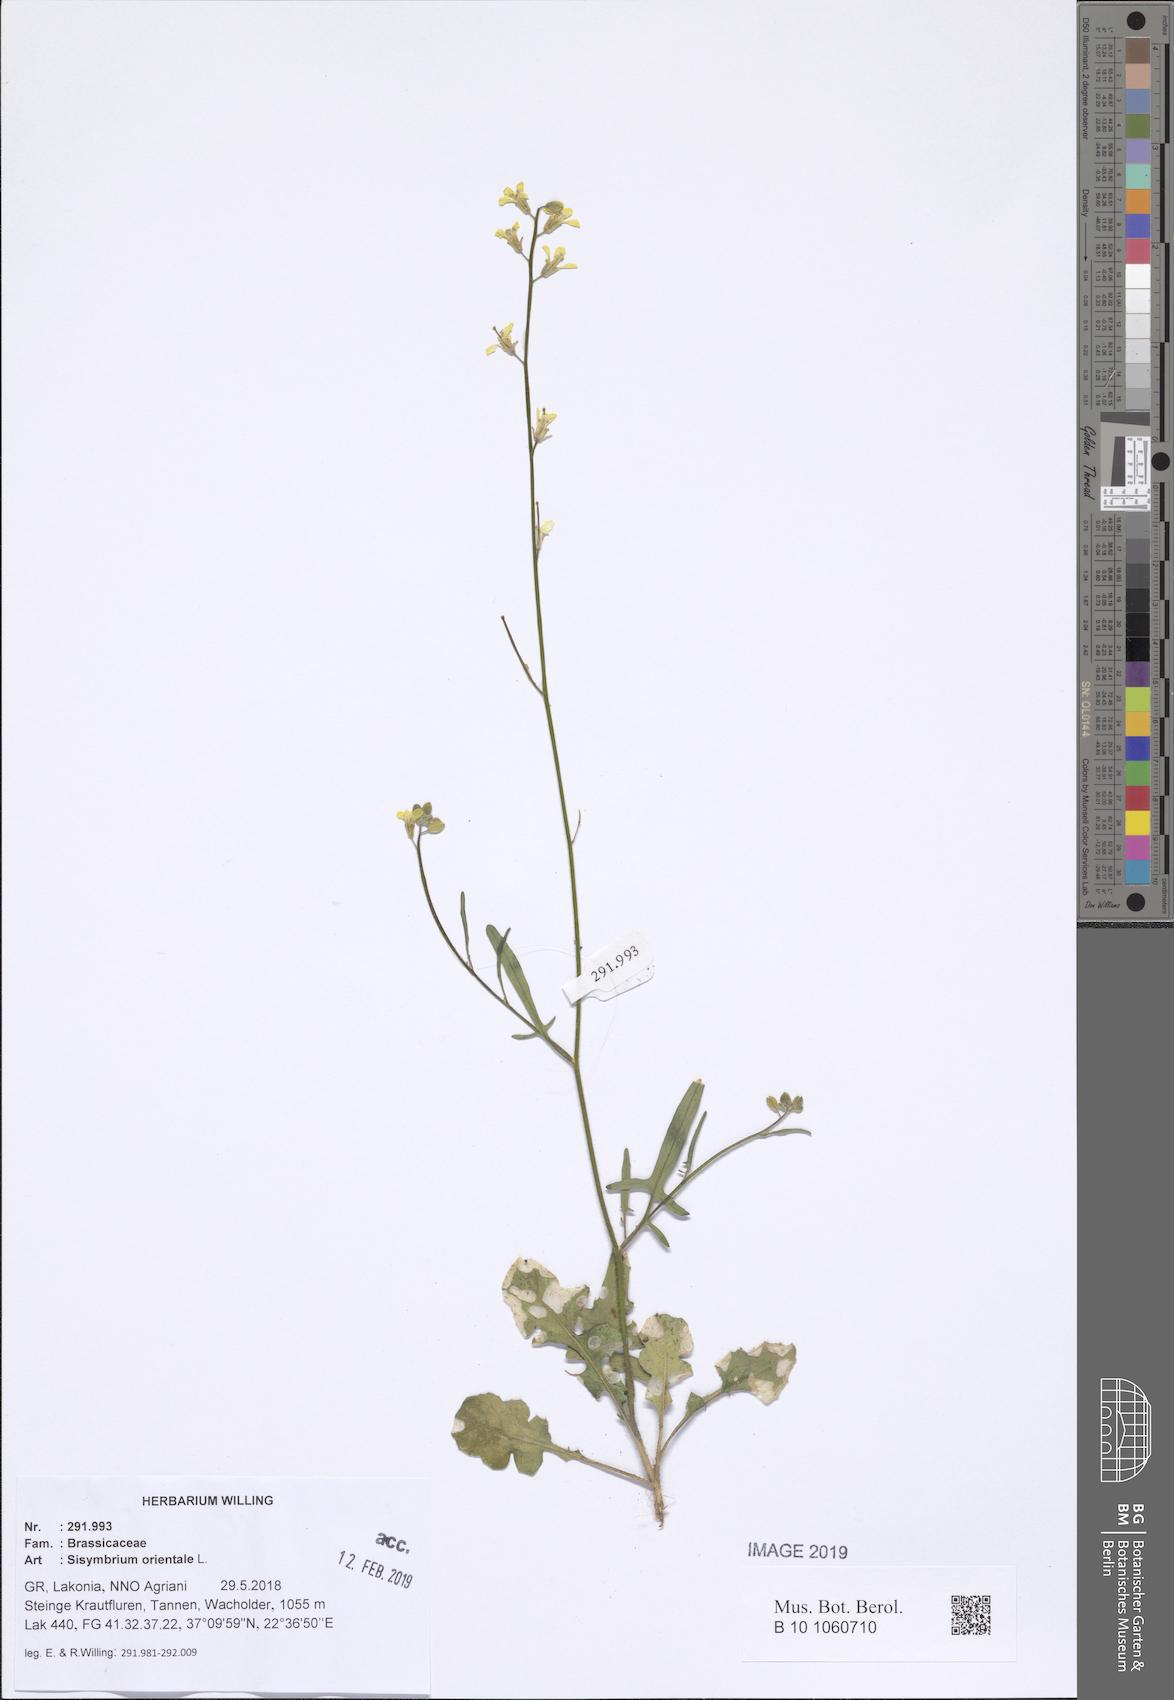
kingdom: Plantae
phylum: Tracheophyta
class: Magnoliopsida
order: Brassicales
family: Brassicaceae
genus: Sisymbrium
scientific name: Sisymbrium orientale
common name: Eastern rocket
